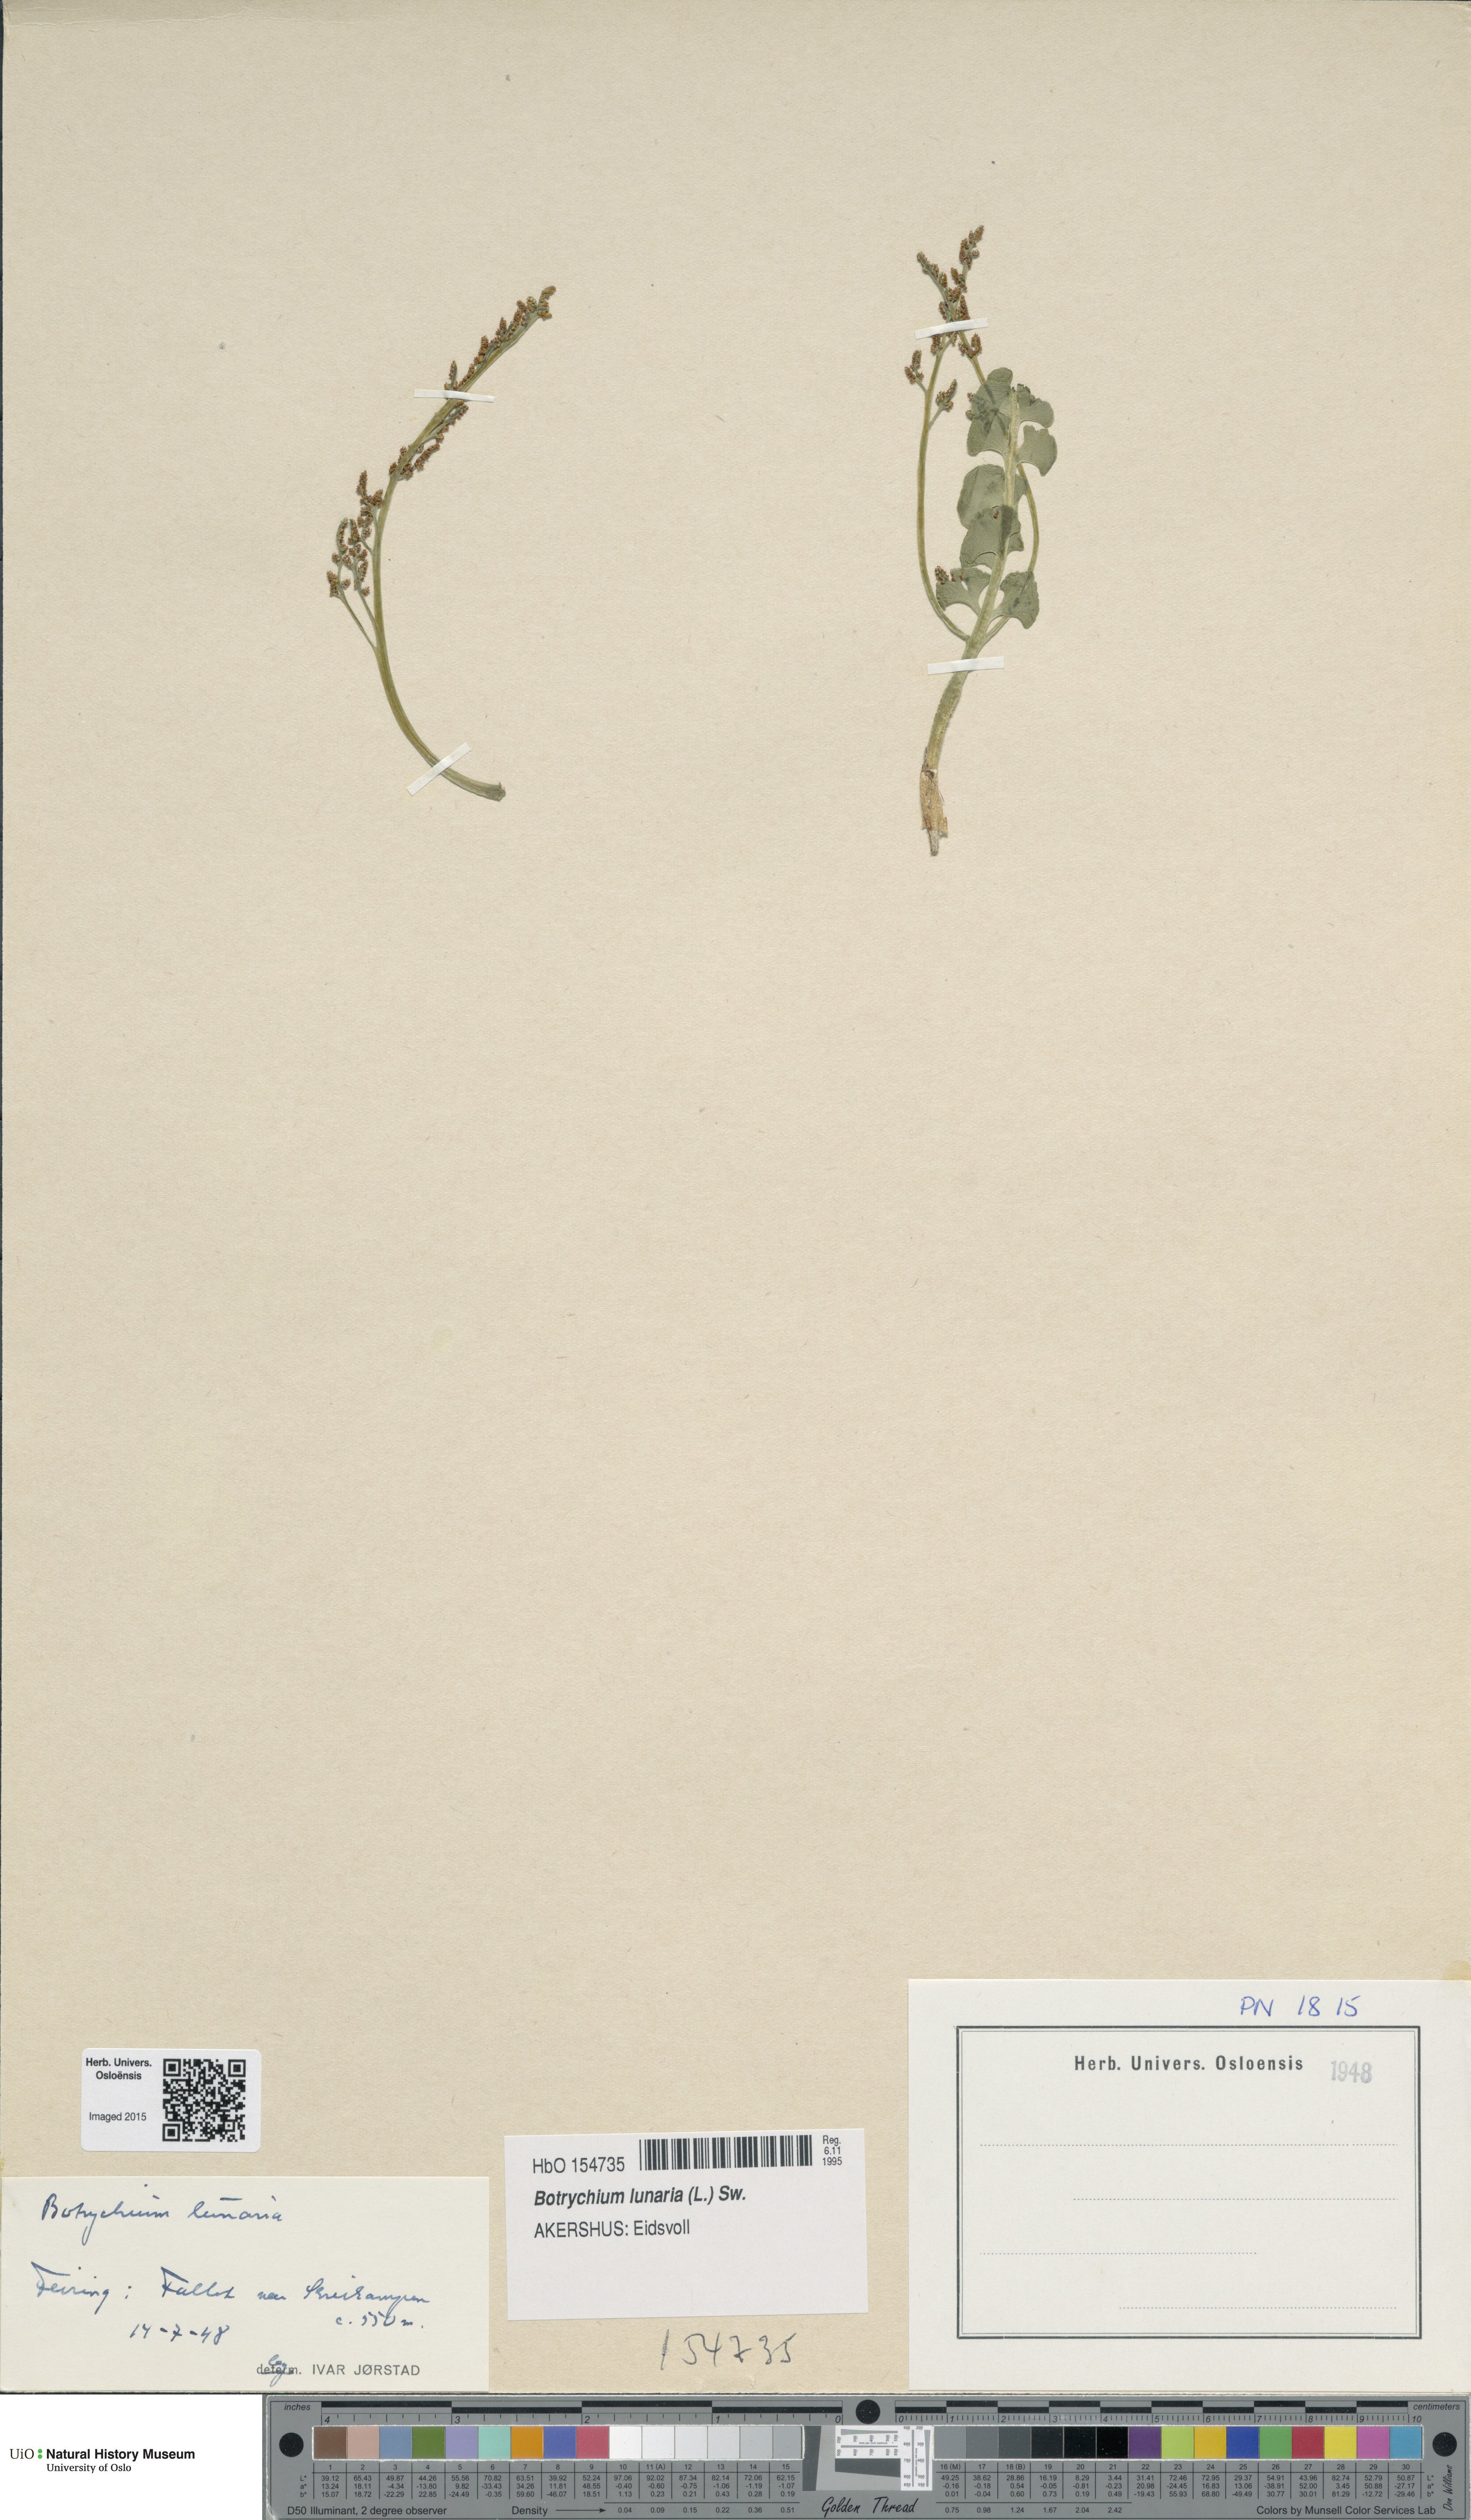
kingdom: Plantae
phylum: Tracheophyta
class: Polypodiopsida
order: Ophioglossales
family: Ophioglossaceae
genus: Botrychium
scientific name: Botrychium lunaria
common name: Moonwort
